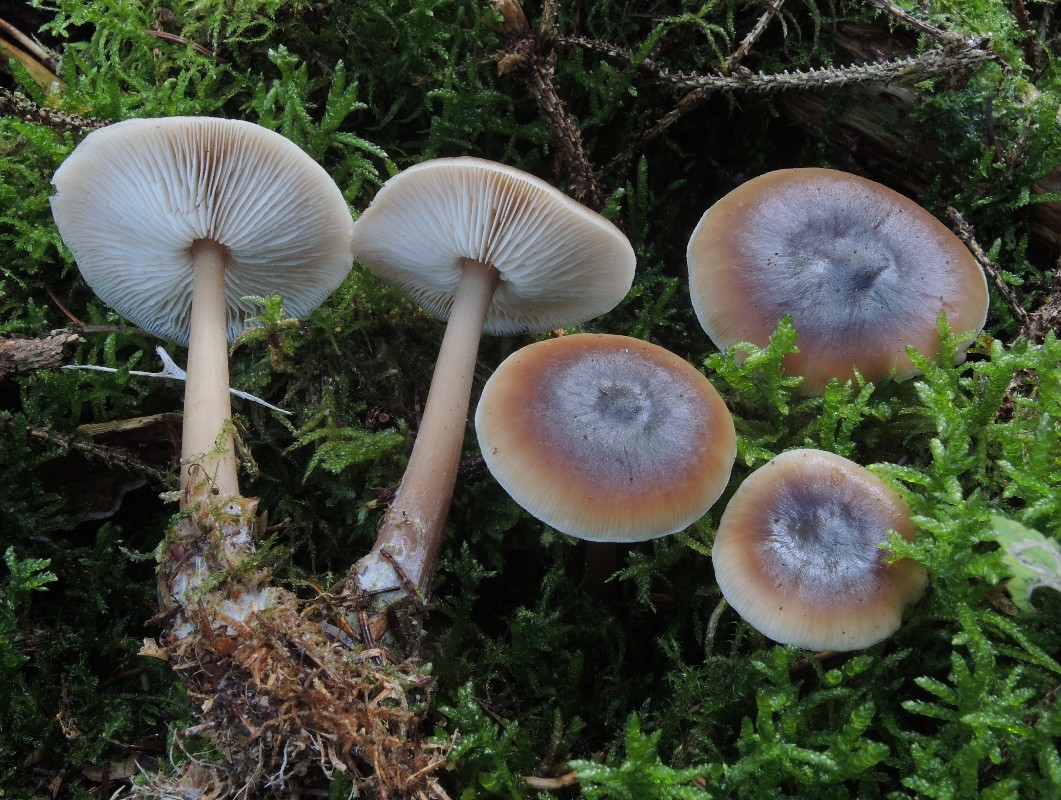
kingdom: Fungi
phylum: Basidiomycota
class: Agaricomycetes
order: Agaricales
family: Omphalotaceae
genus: Rhodocollybia
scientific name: Rhodocollybia butyracea
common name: keglestokket fladhat
